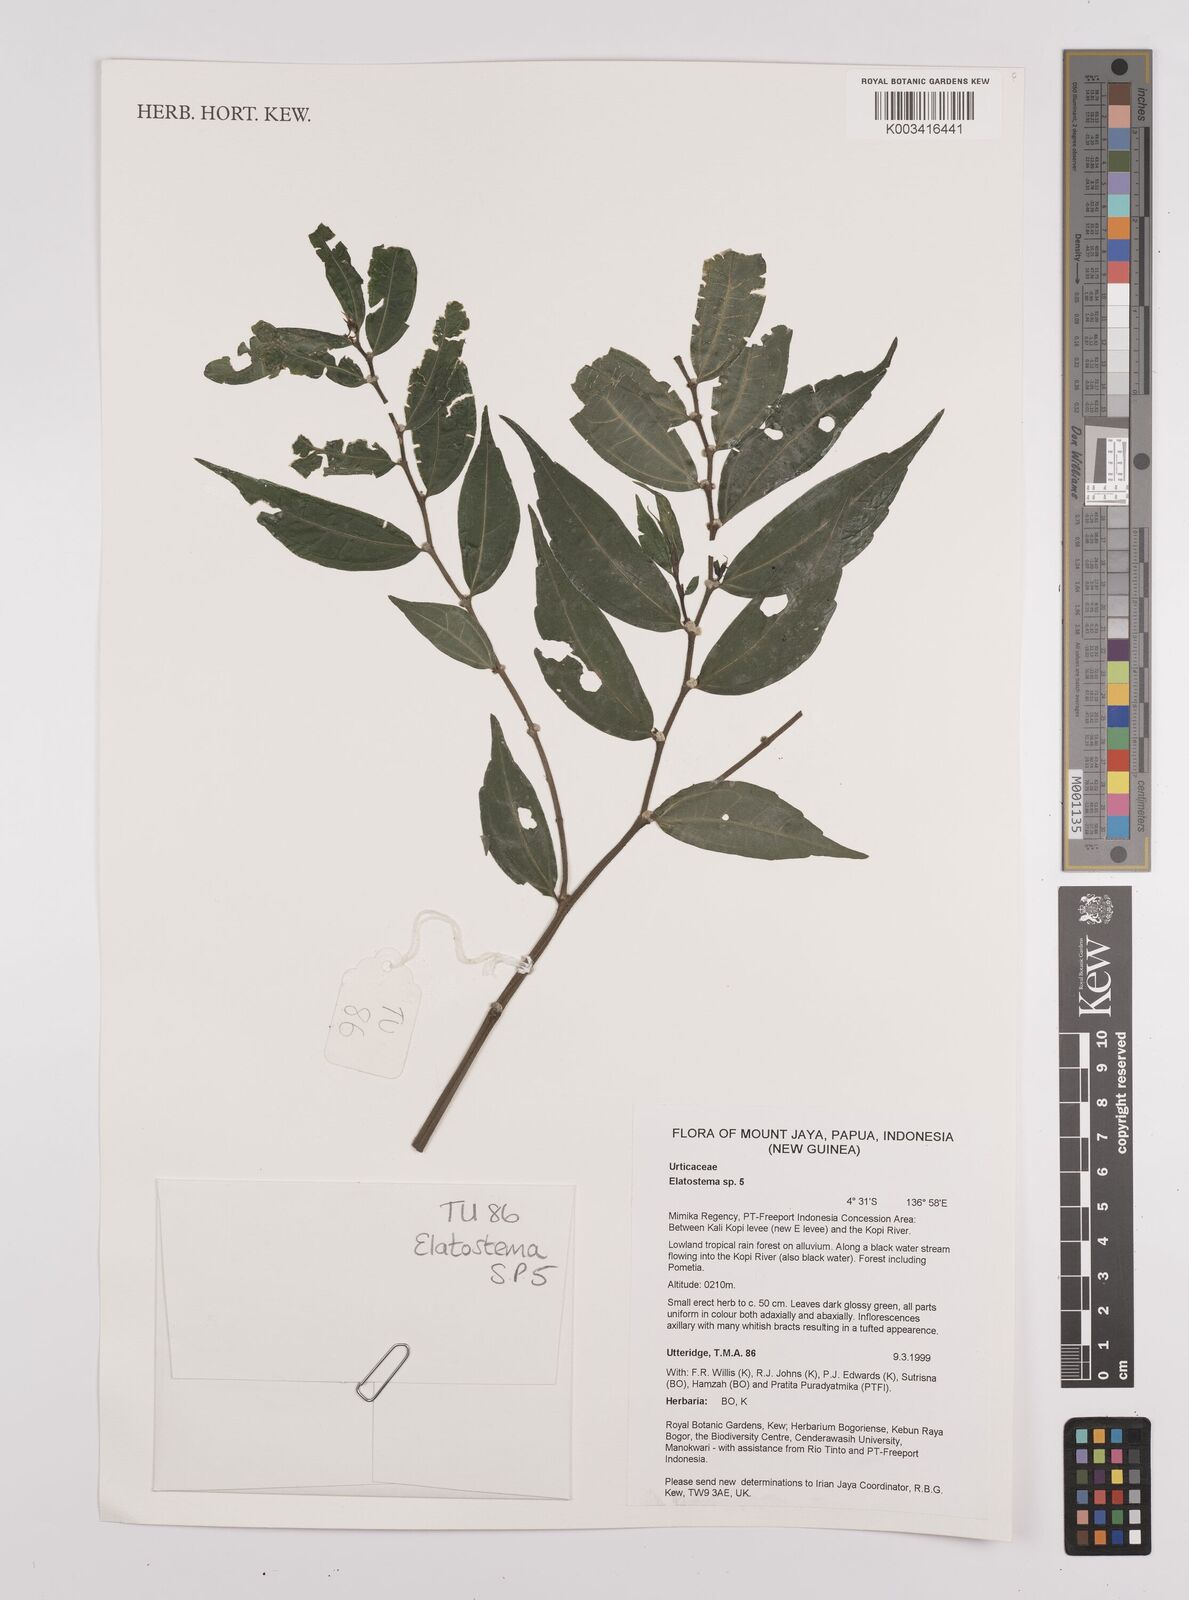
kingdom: Plantae
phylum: Tracheophyta
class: Magnoliopsida
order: Rosales
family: Urticaceae
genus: Elatostema
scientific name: Elatostema
